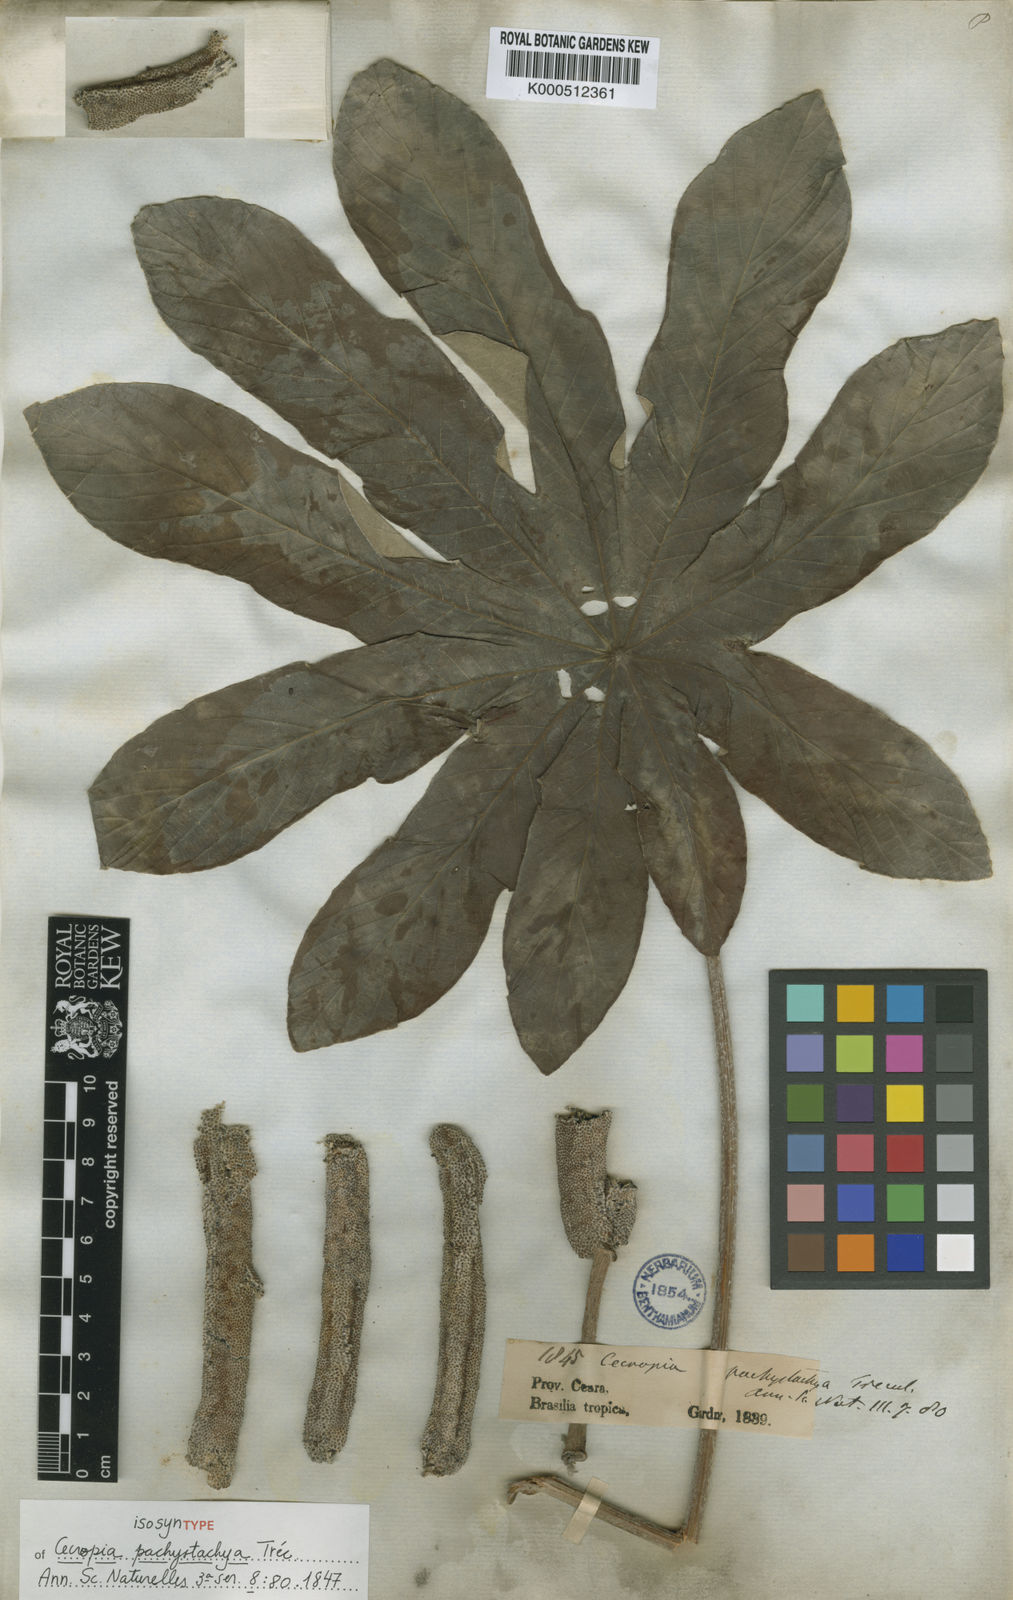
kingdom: Plantae
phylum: Tracheophyta
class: Magnoliopsida
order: Rosales
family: Urticaceae
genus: Cecropia
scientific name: Cecropia
